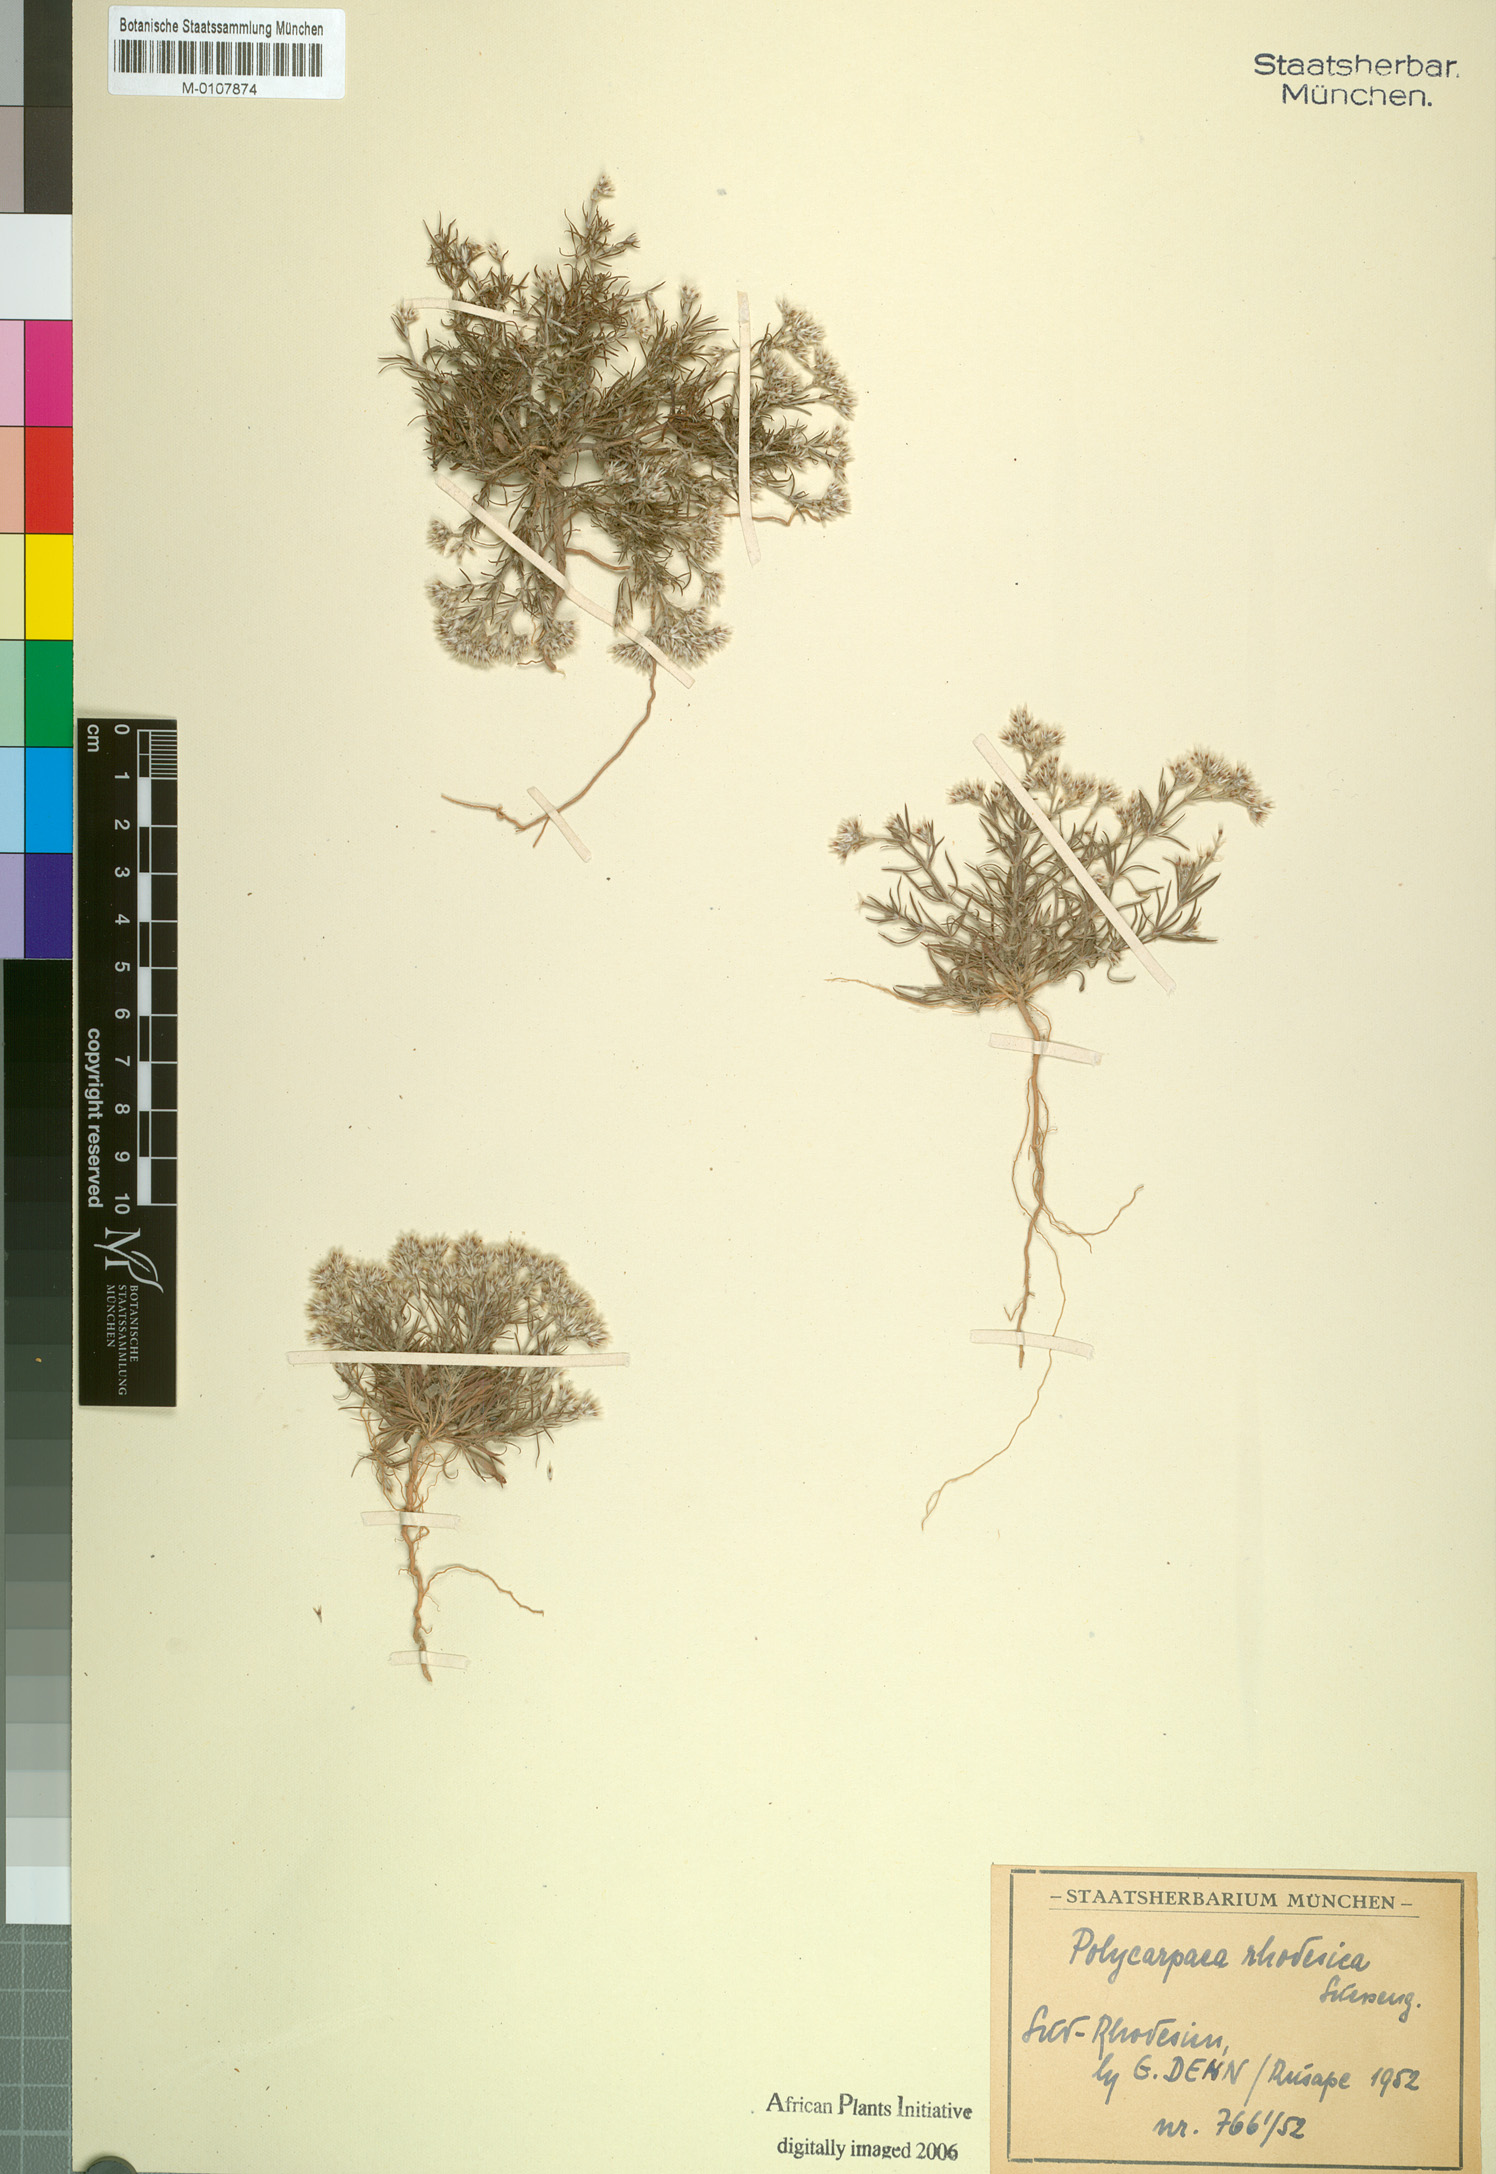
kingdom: Plantae
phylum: Tracheophyta
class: Magnoliopsida
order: Caryophyllales
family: Caryophyllaceae
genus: Polycarpaea
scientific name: Polycarpaea eriantha
